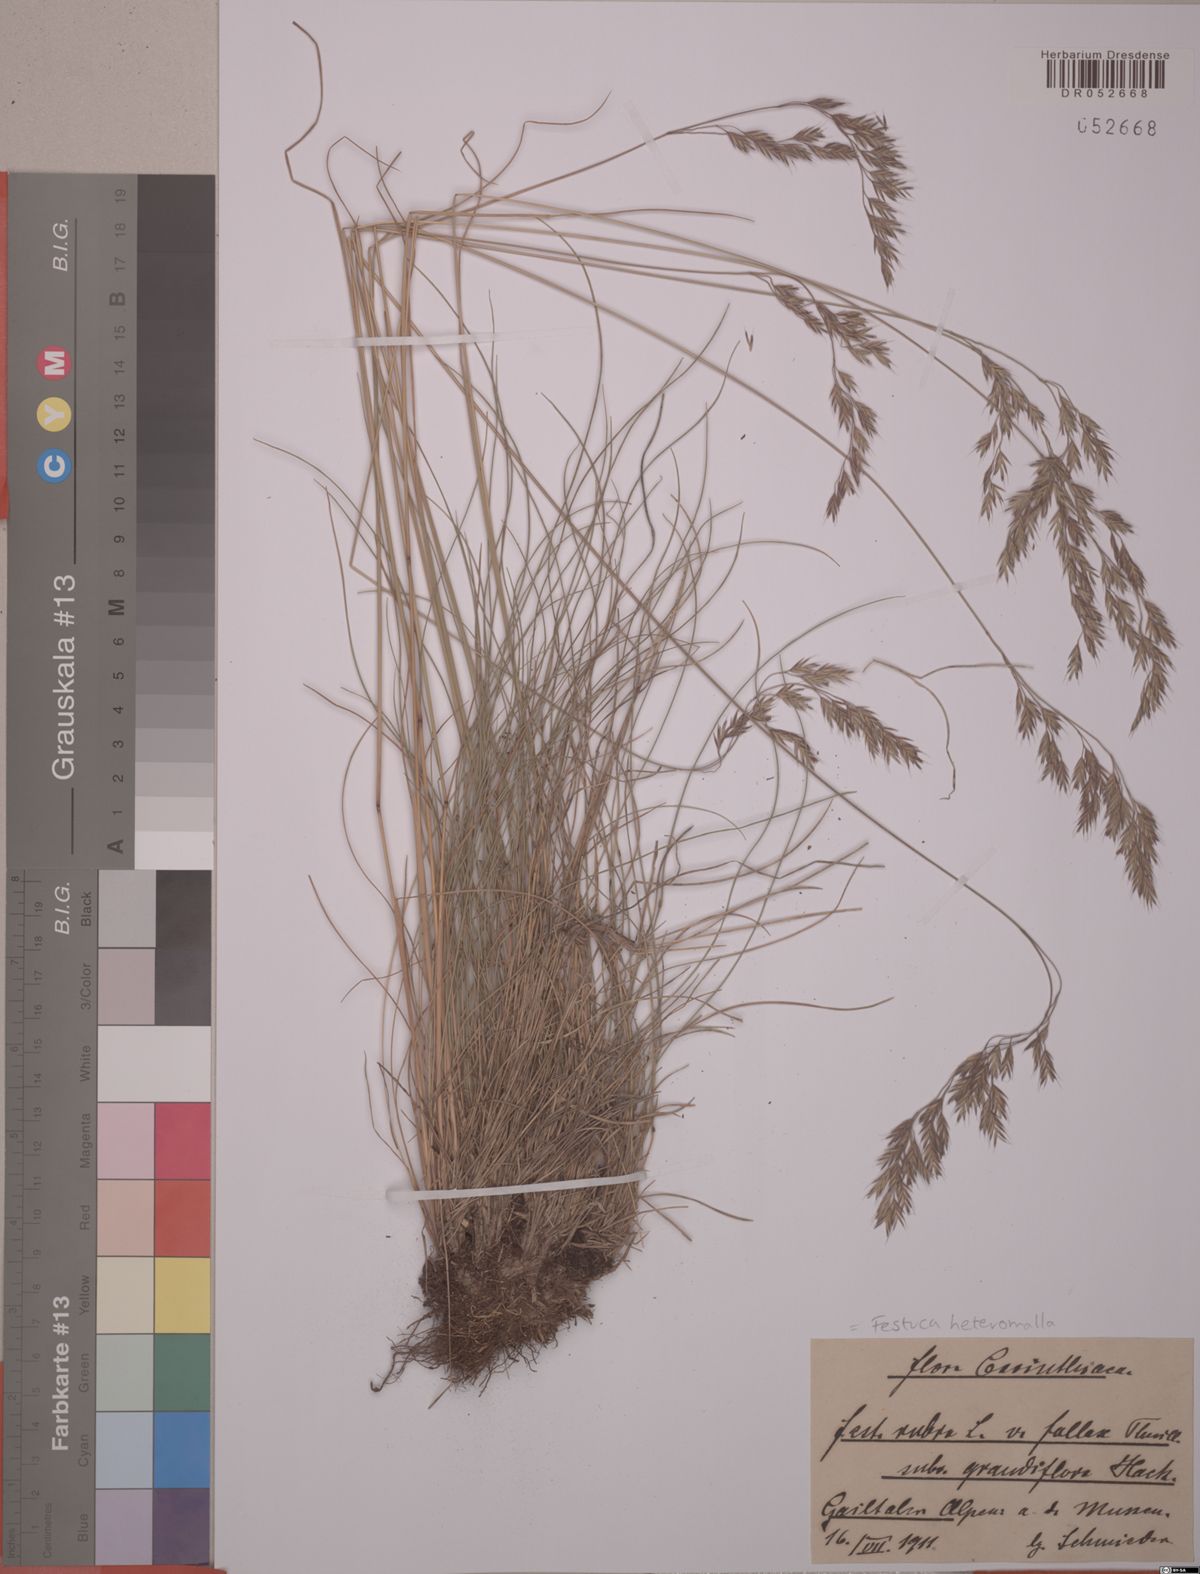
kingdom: Plantae
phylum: Tracheophyta
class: Liliopsida
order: Poales
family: Poaceae
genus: Festuca
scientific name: Festuca heteromalla
